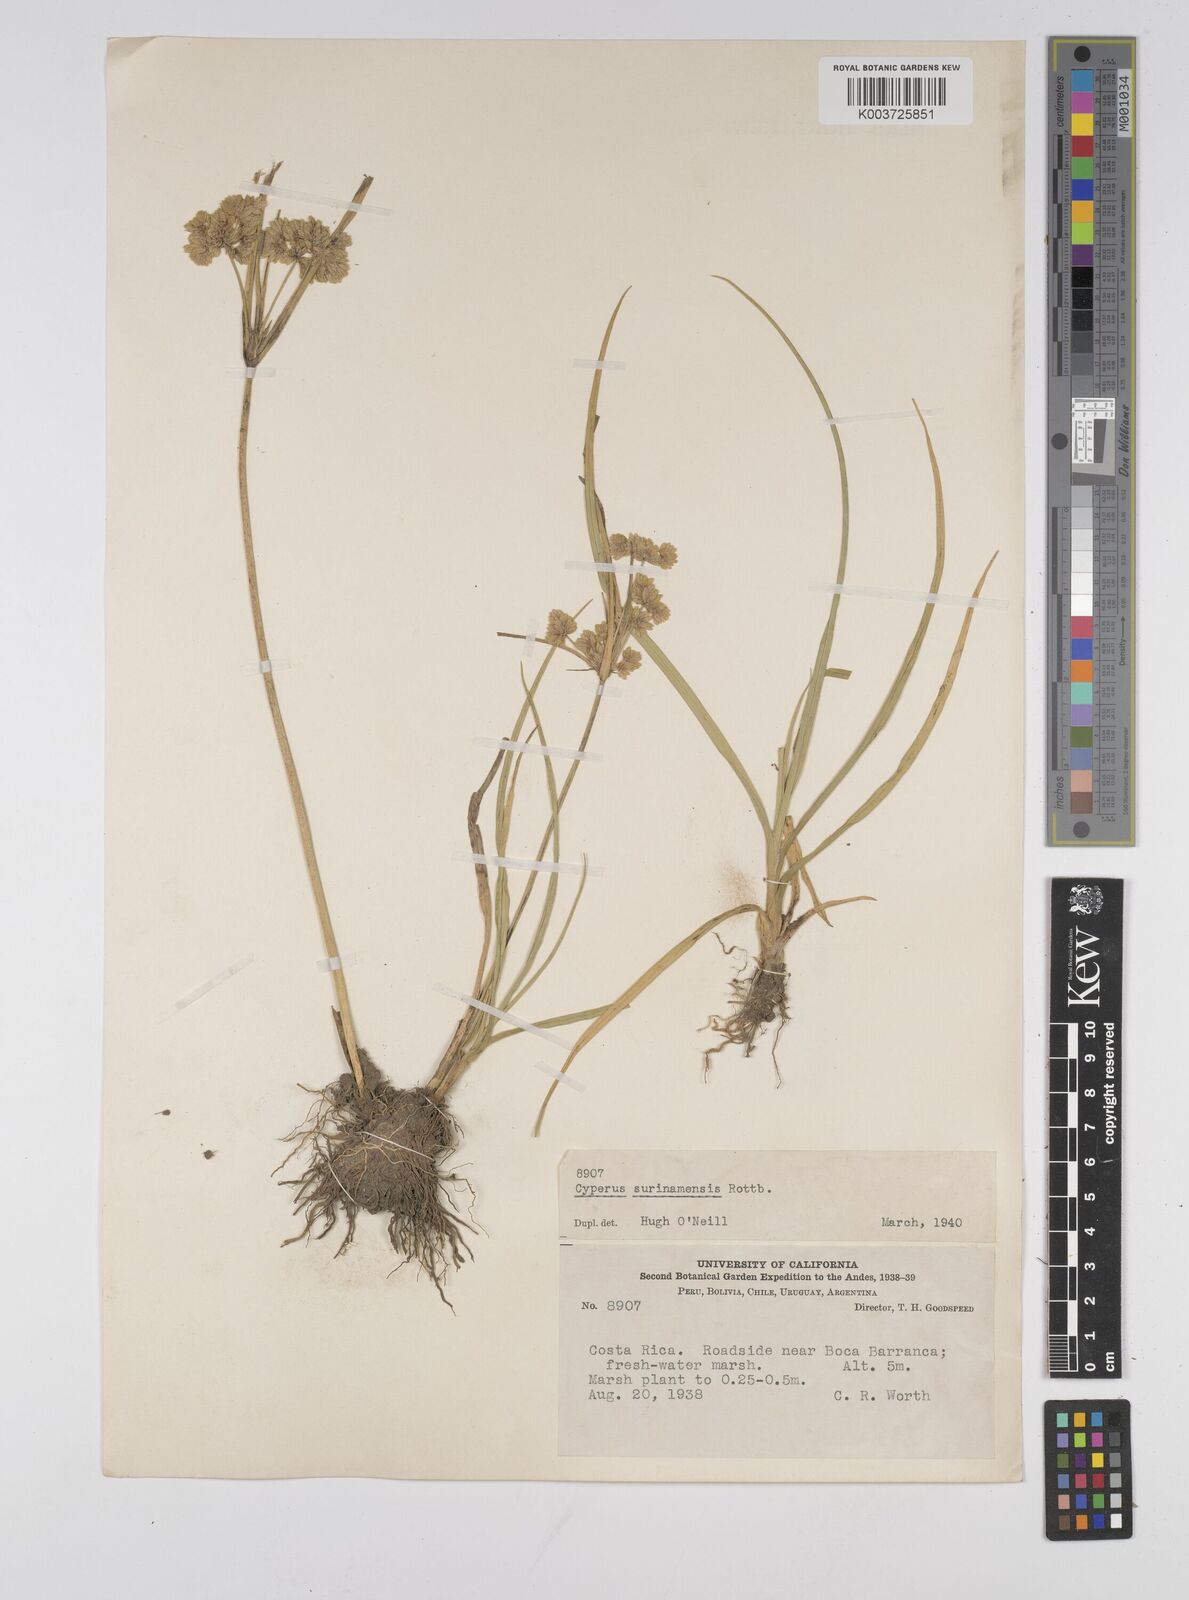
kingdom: Plantae
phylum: Tracheophyta
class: Liliopsida
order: Poales
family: Cyperaceae
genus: Cyperus
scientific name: Cyperus surinamensis
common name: Tropical flat sedge
